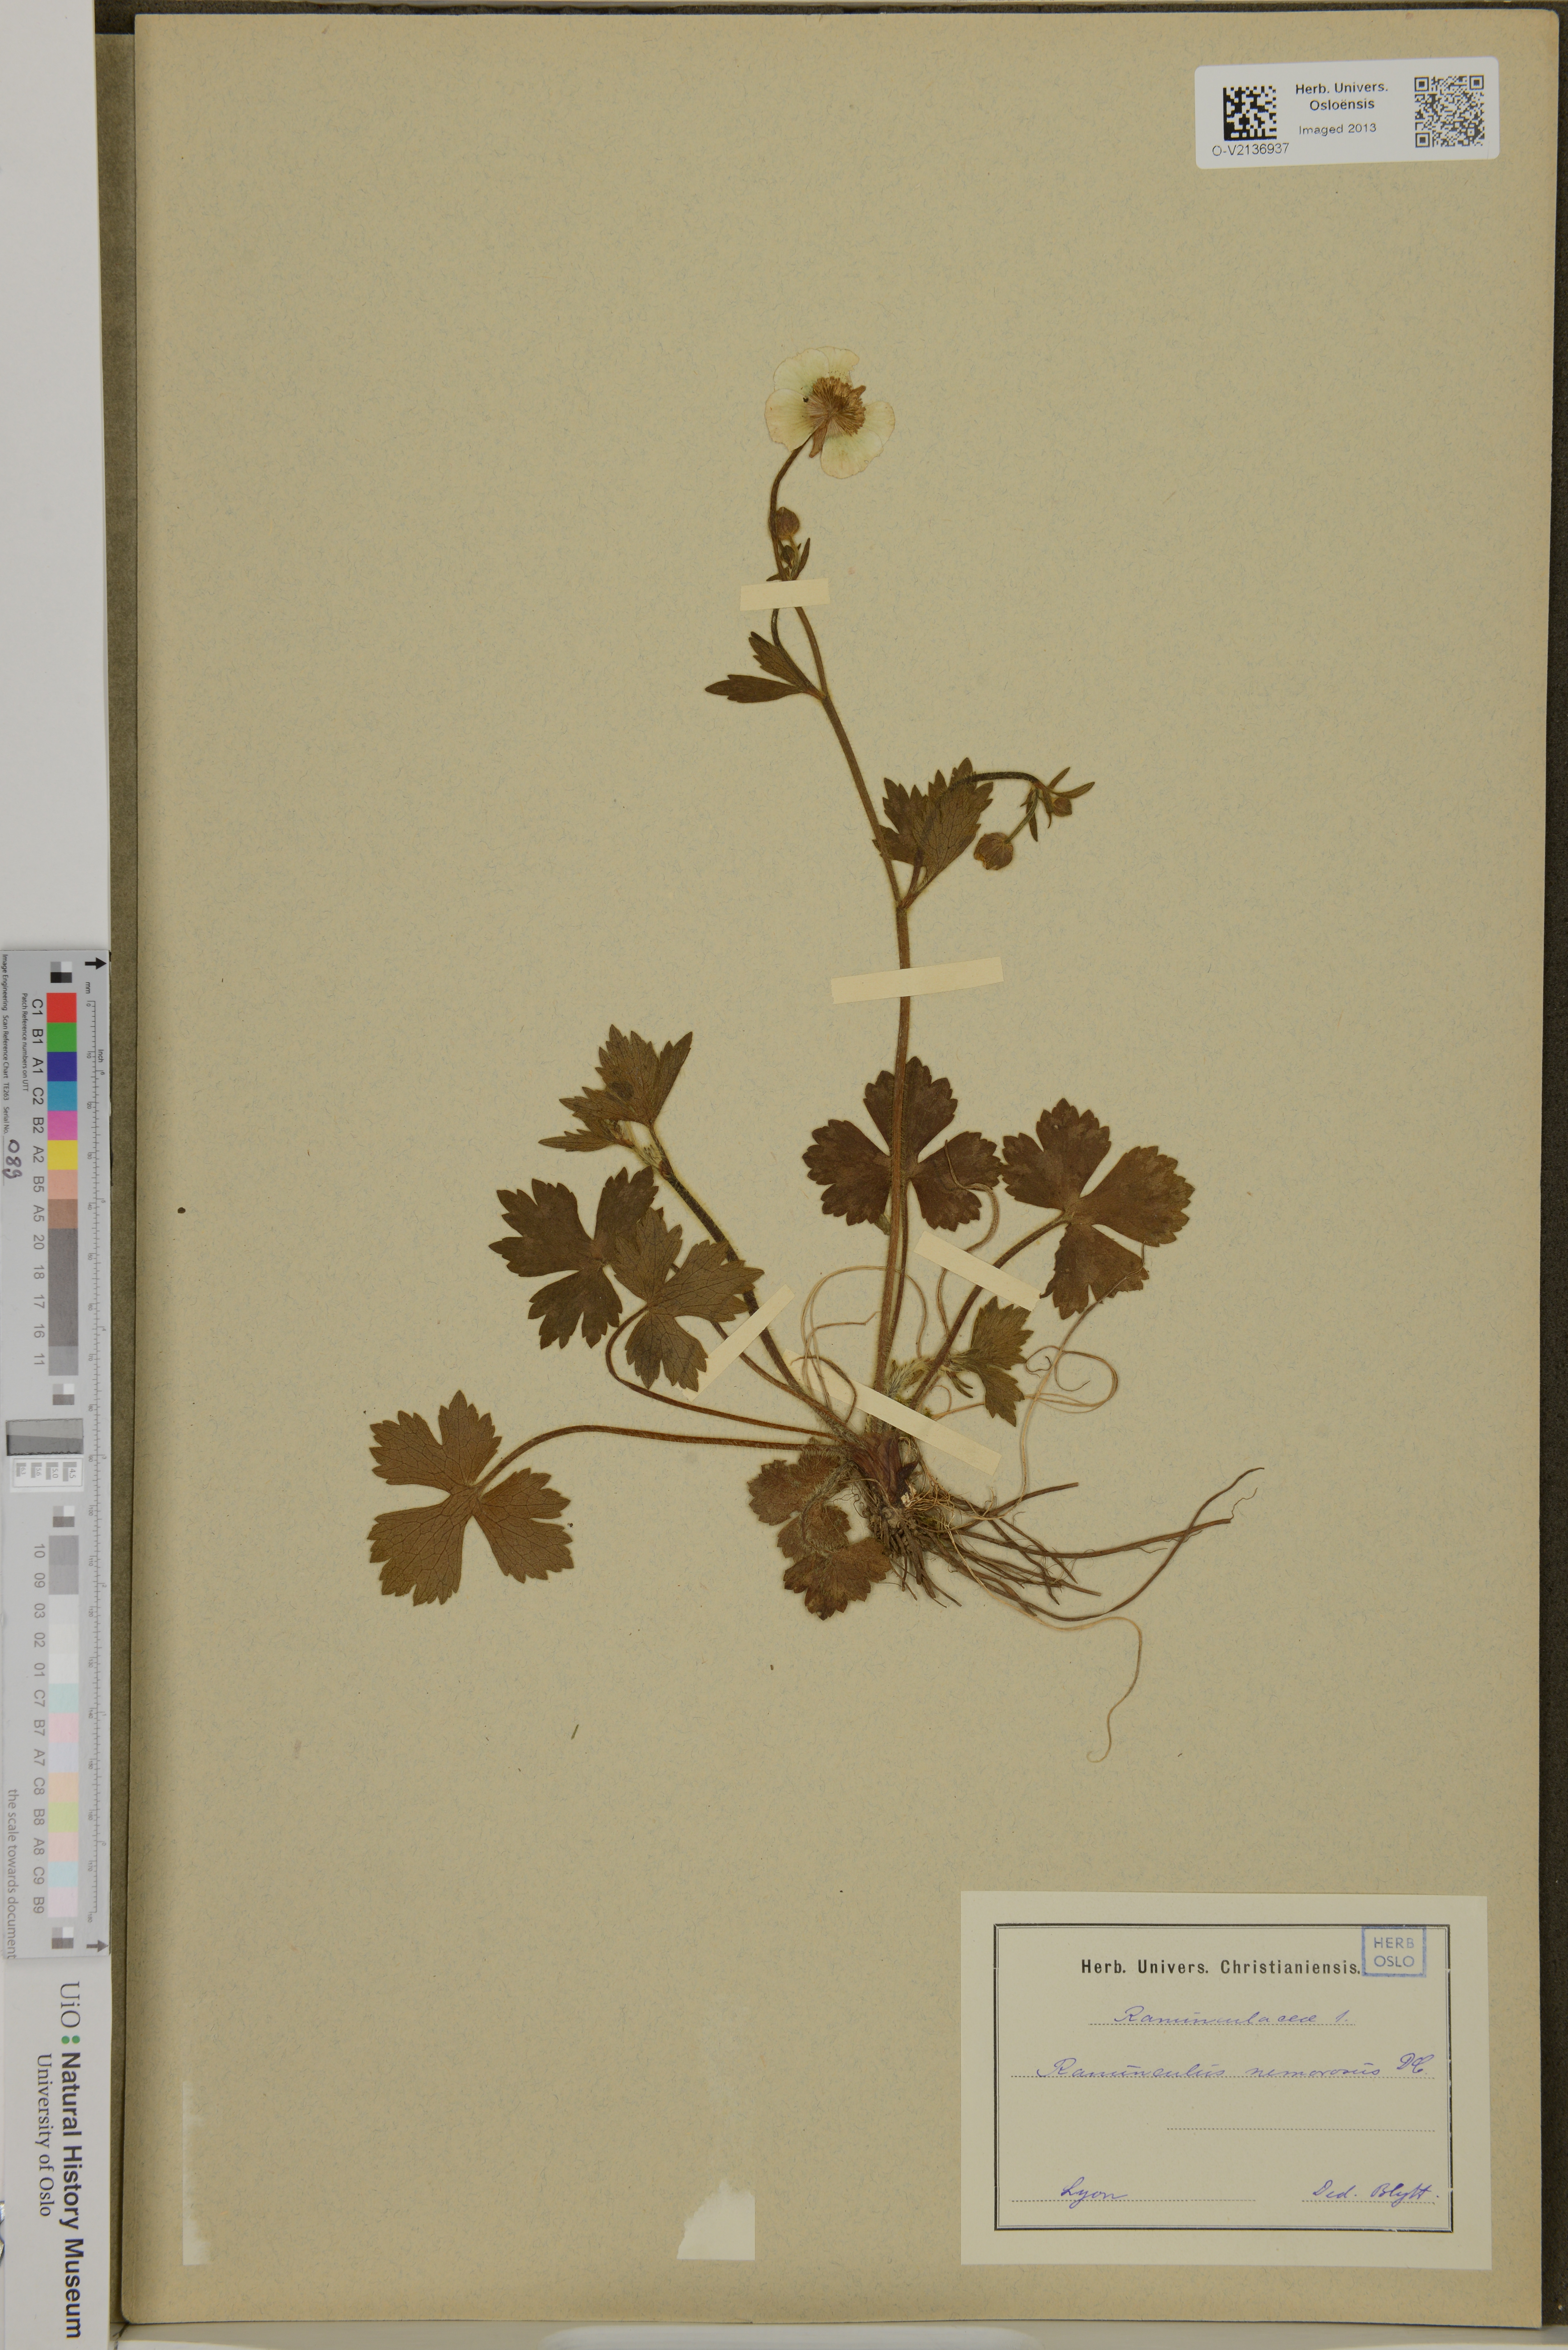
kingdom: Plantae
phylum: Tracheophyta
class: Magnoliopsida
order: Ranunculales
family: Ranunculaceae
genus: Ranunculus
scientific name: Ranunculus polyanthemos
